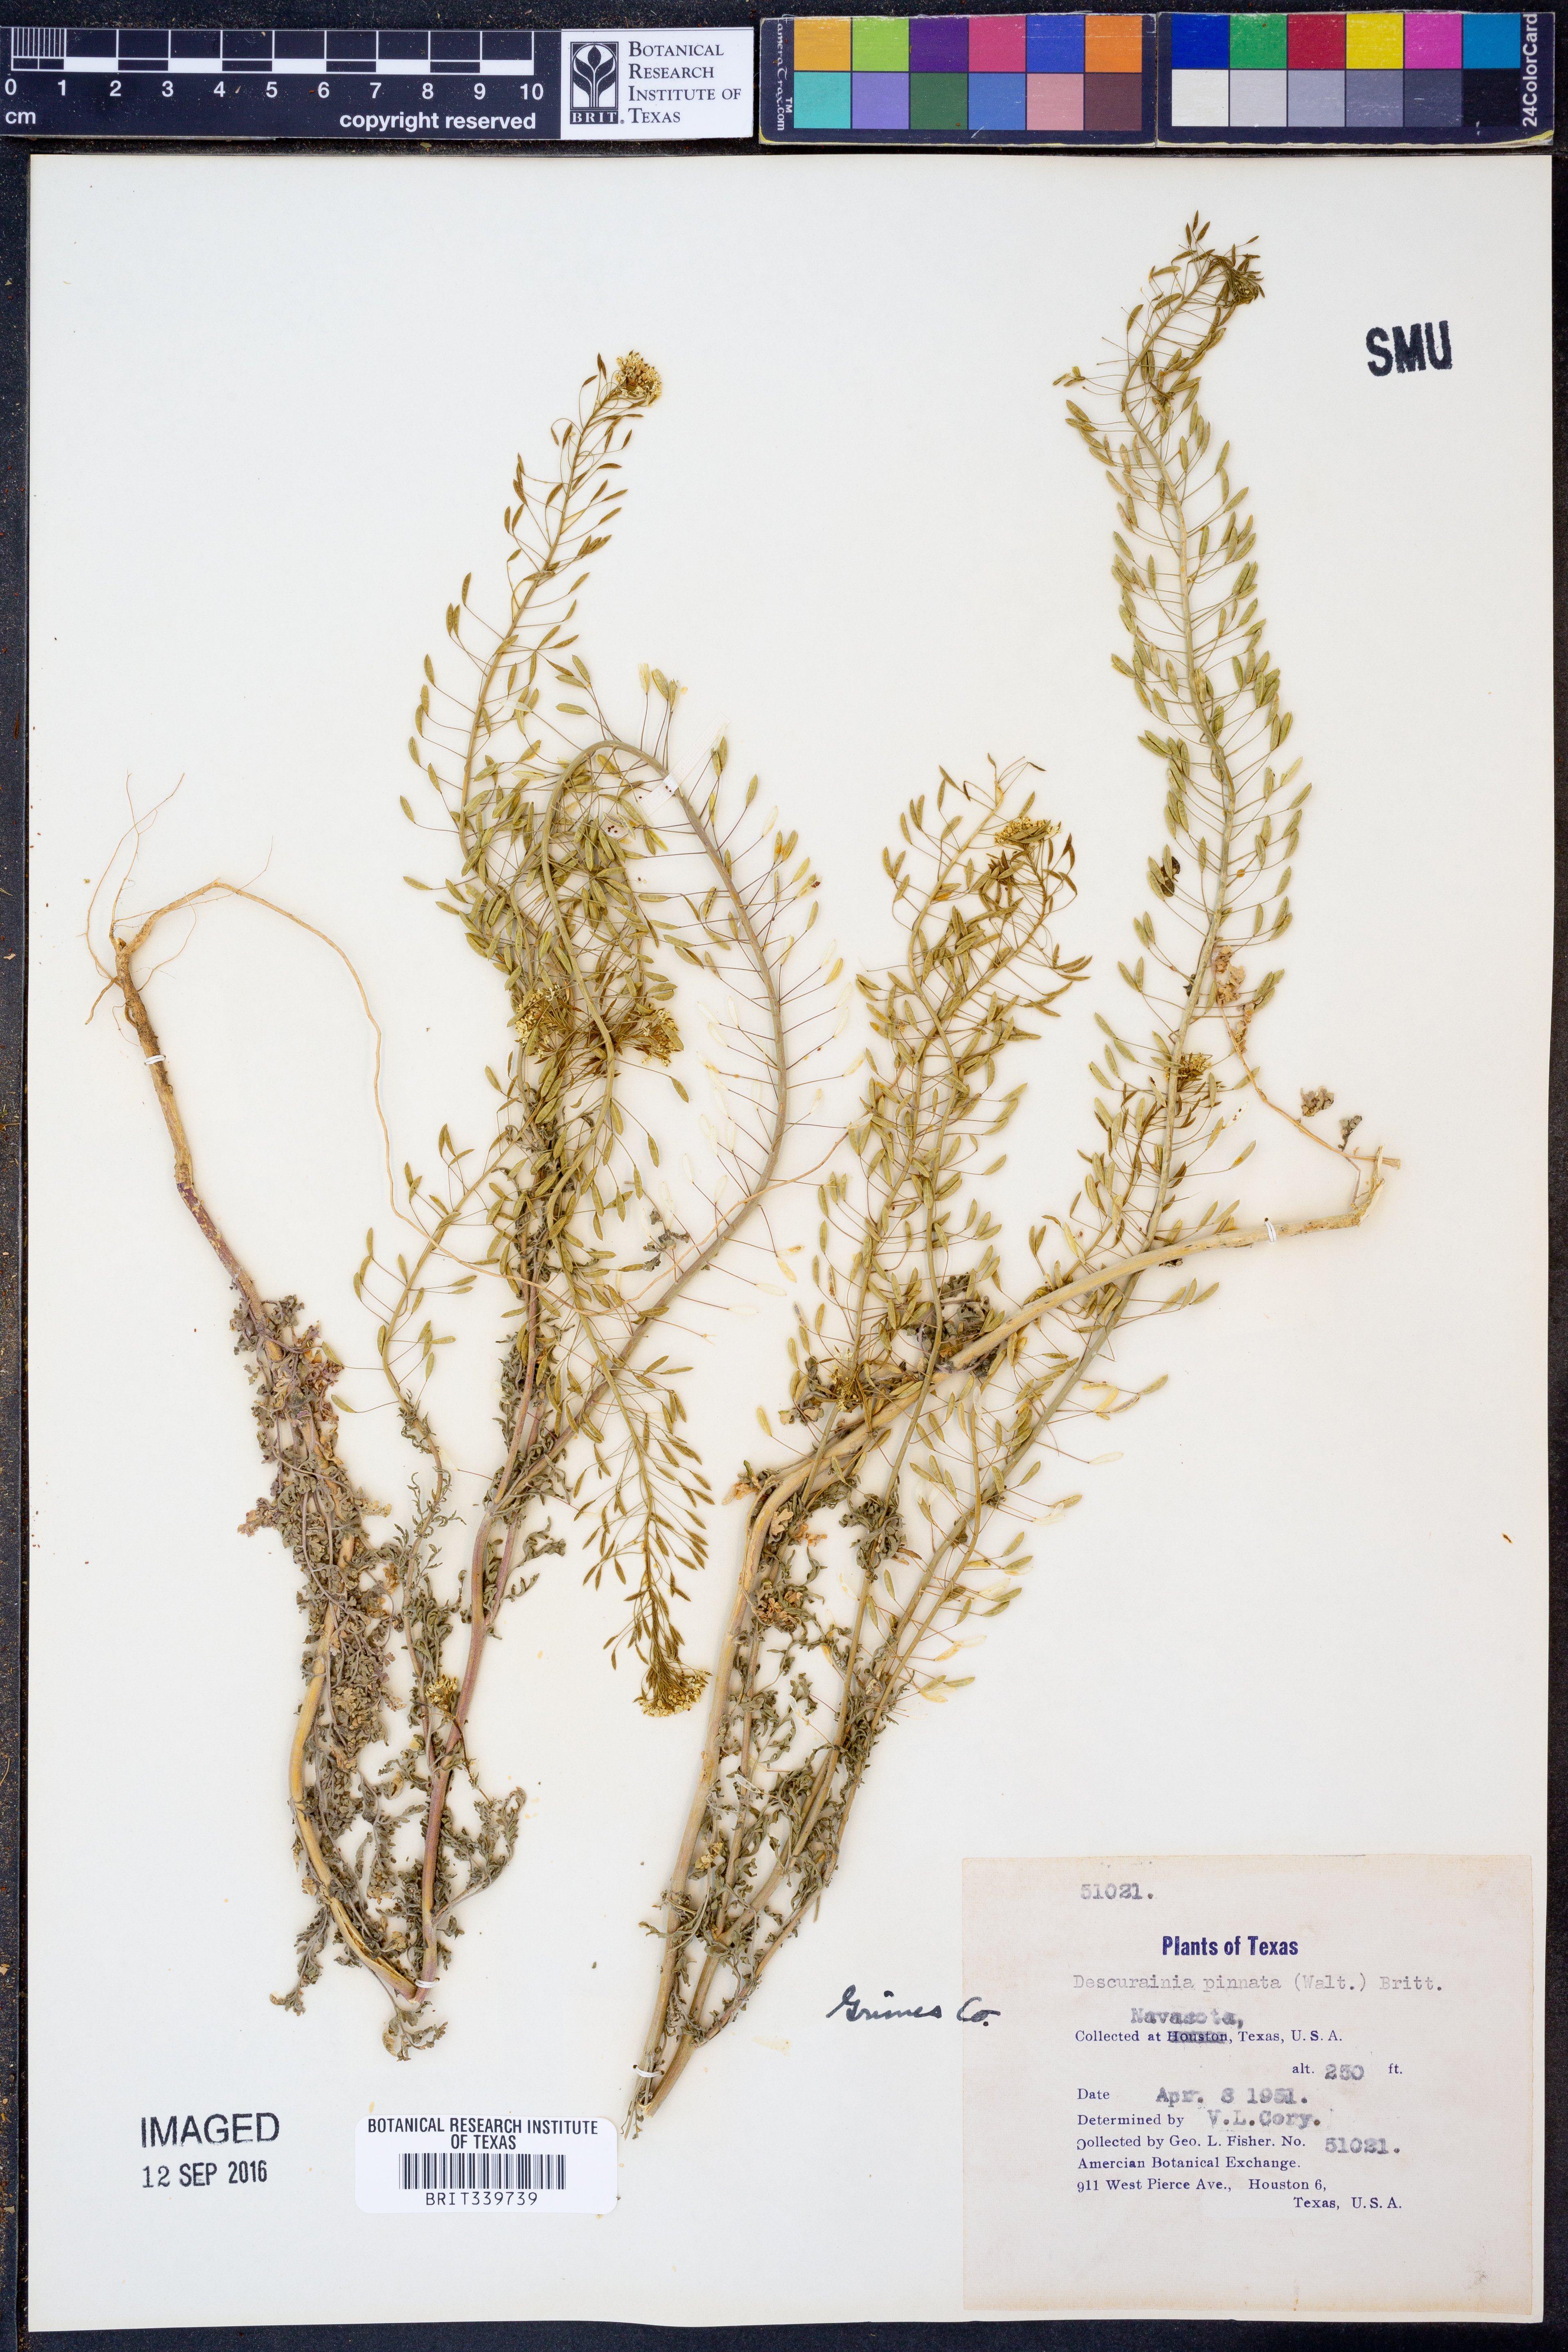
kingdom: Plantae
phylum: Tracheophyta
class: Magnoliopsida
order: Brassicales
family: Brassicaceae
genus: Descurainia
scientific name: Descurainia pinnata
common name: Western tansy mustard
